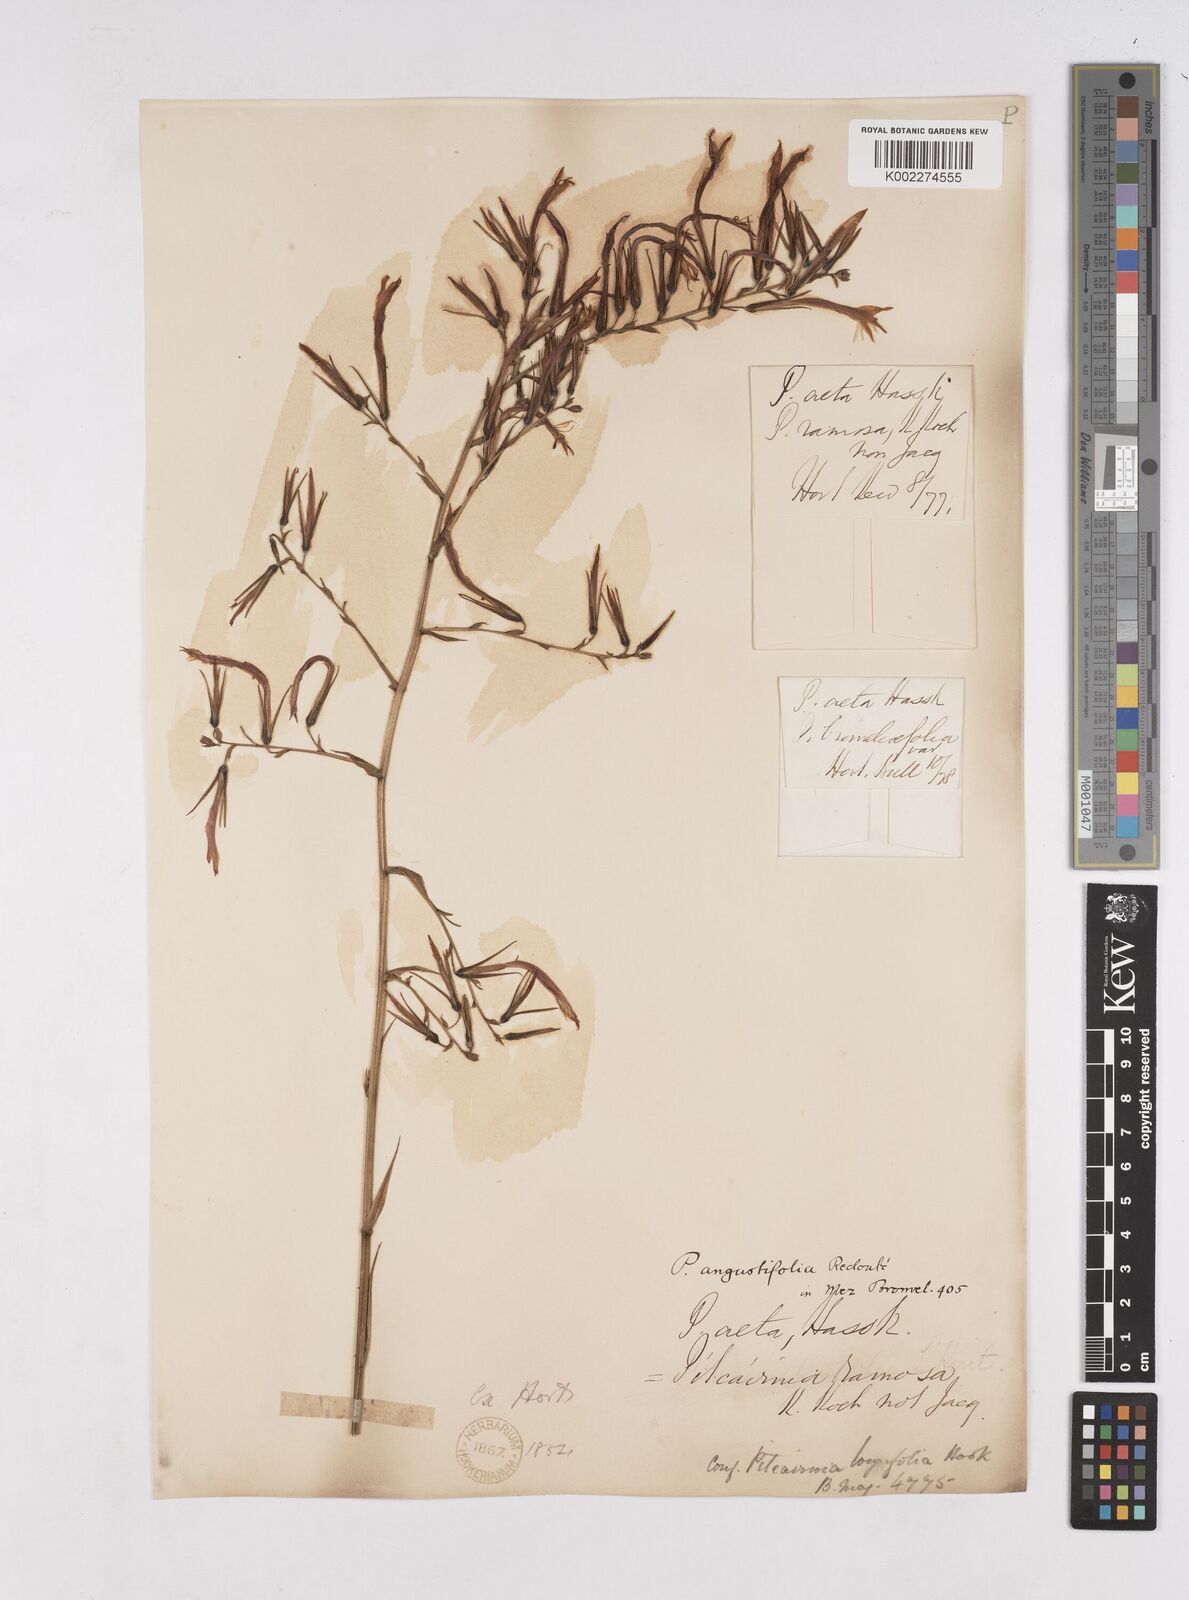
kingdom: Plantae
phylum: Tracheophyta
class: Liliopsida
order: Poales
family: Bromeliaceae
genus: Pitcairnia
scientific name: Pitcairnia angustifolia
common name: Clapper
